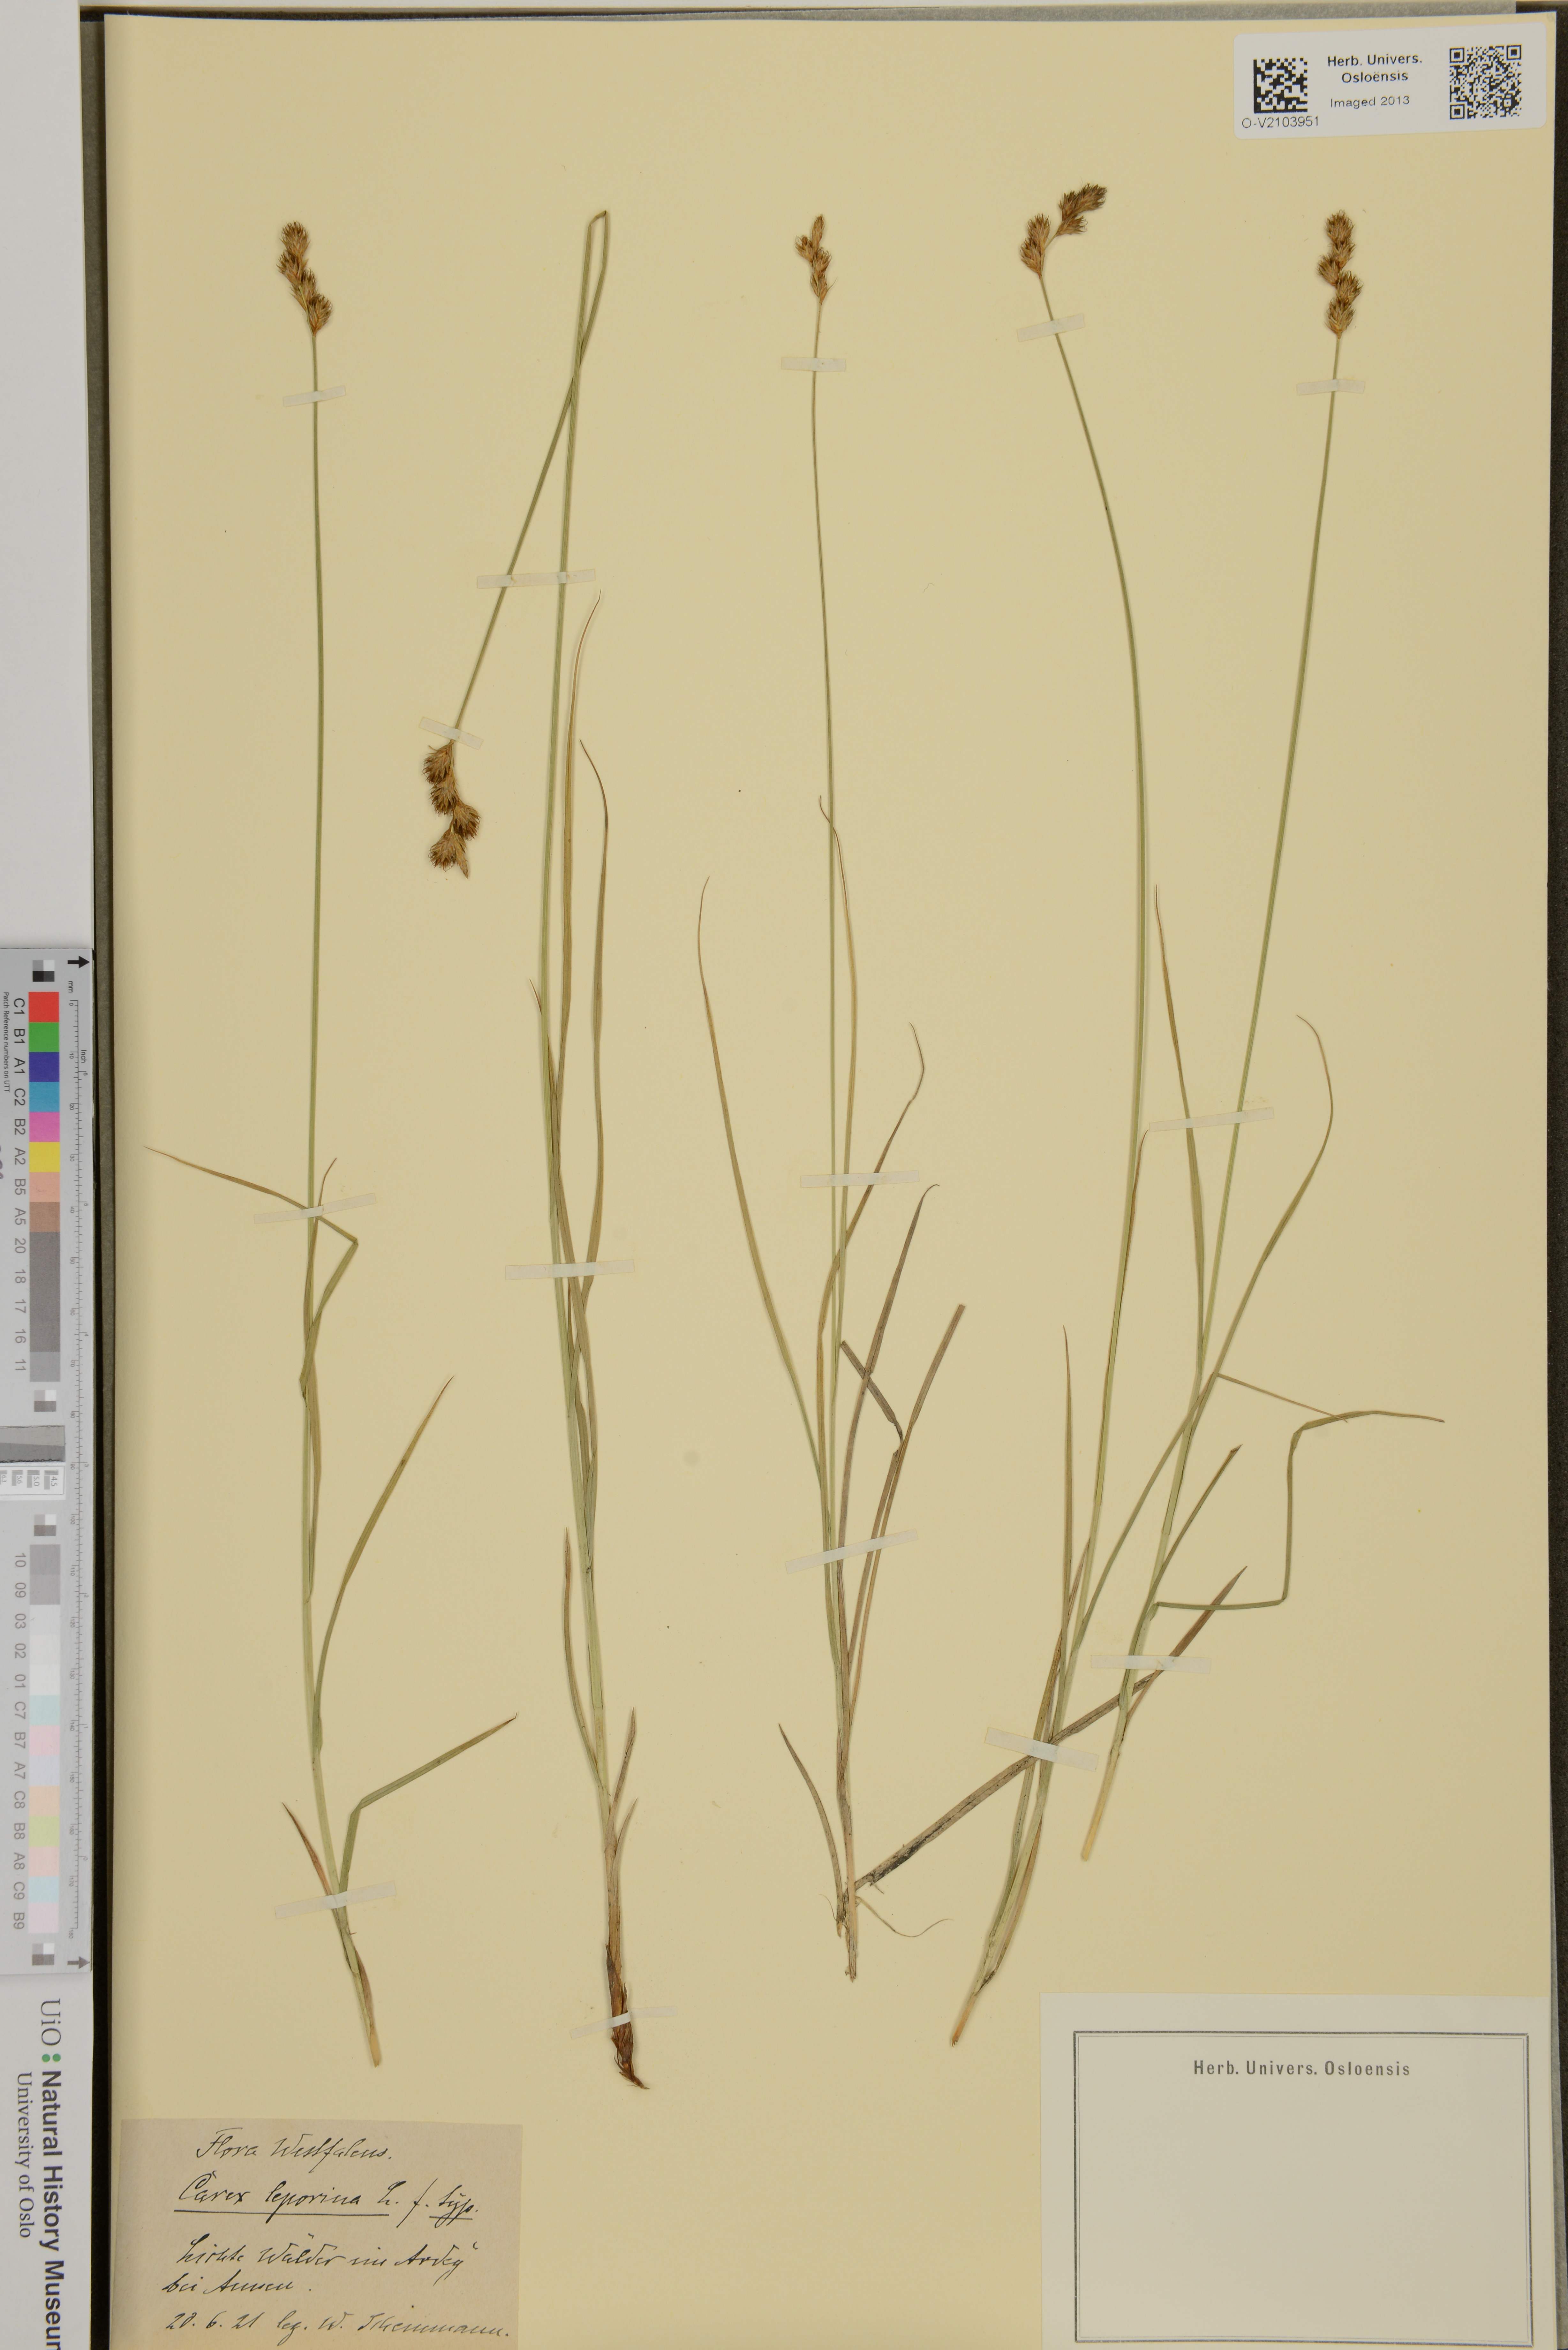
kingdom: Plantae
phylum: Tracheophyta
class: Liliopsida
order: Poales
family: Cyperaceae
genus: Carex
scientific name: Carex leporina
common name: Oval sedge
